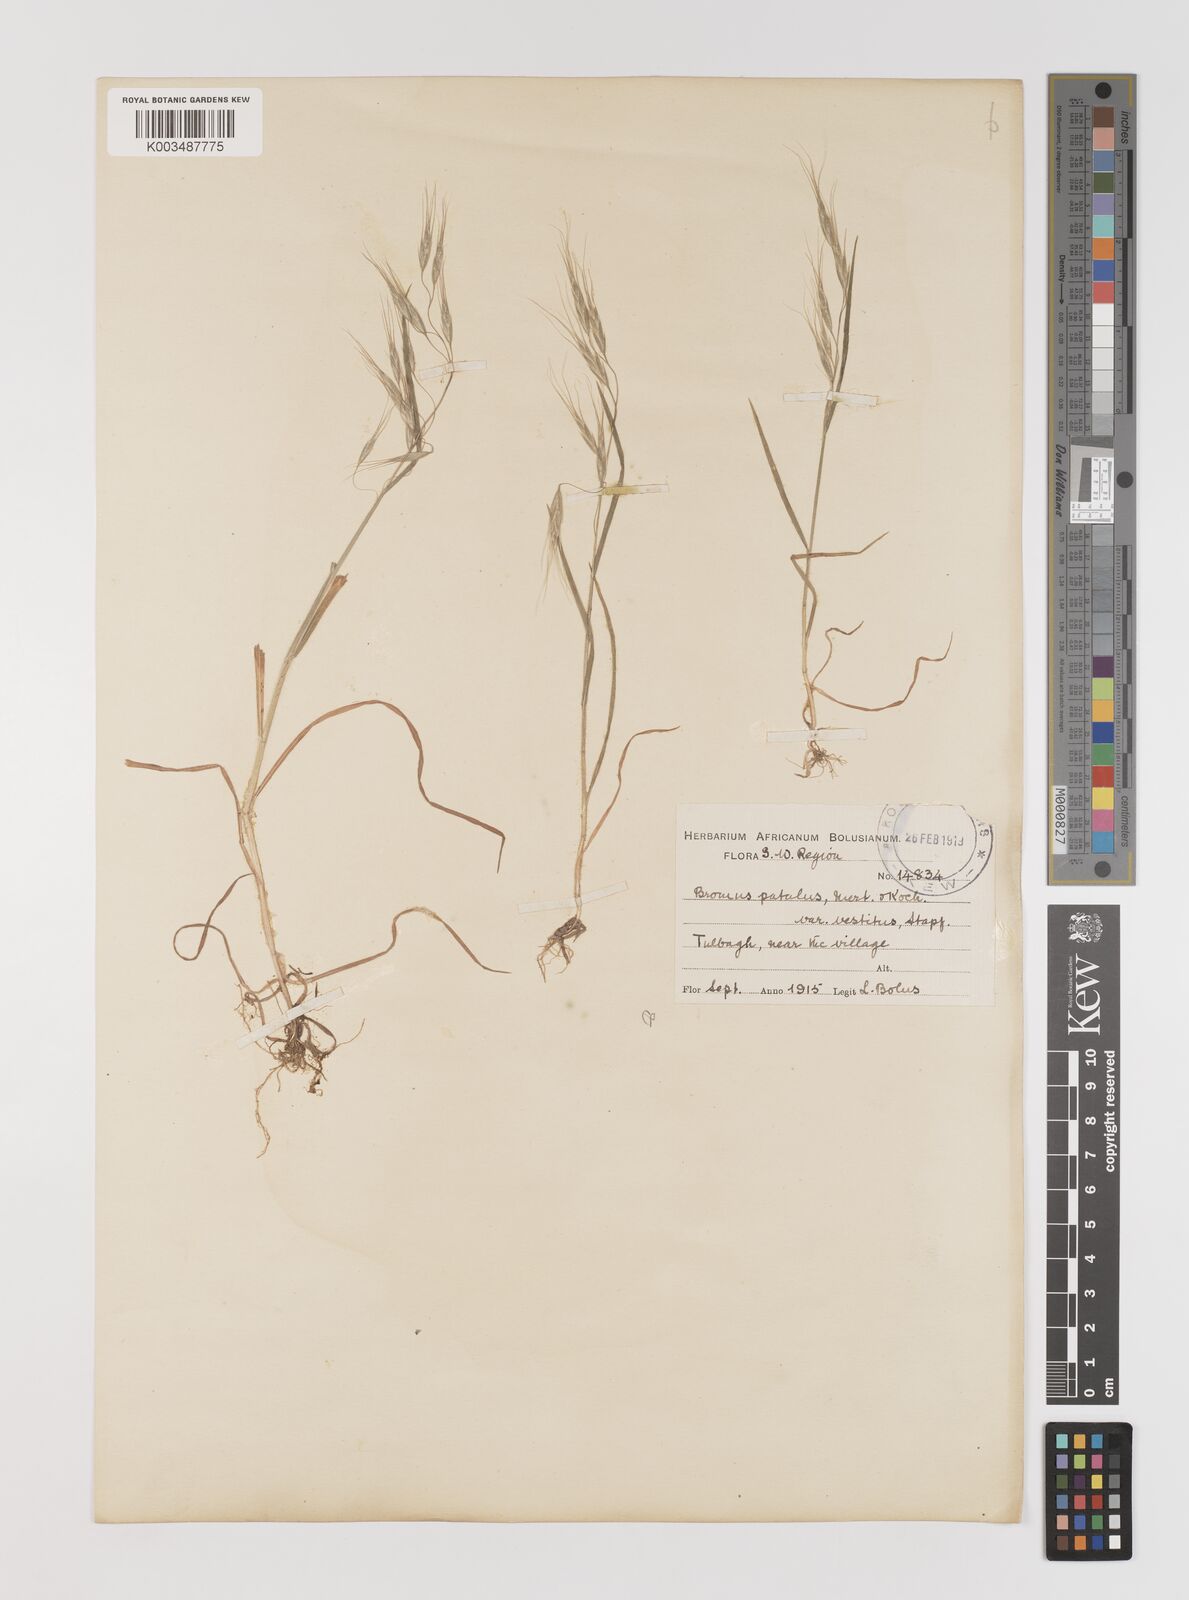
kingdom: Plantae
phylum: Tracheophyta
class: Liliopsida
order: Poales
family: Poaceae
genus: Bromus
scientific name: Bromus pectinatus
